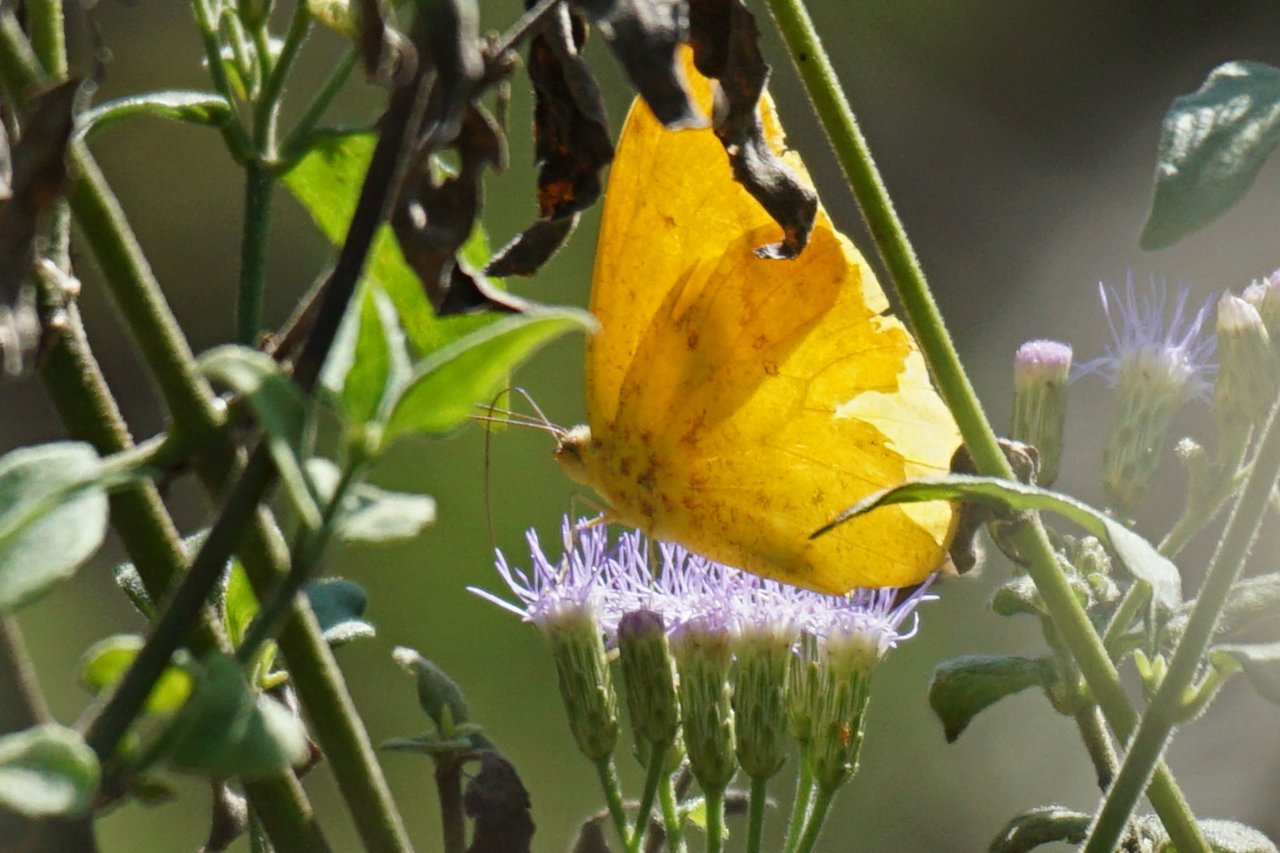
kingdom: Animalia
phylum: Arthropoda
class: Insecta
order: Lepidoptera
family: Pieridae
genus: Phoebis
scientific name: Phoebis agarithe
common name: Large Orange Sulphur
